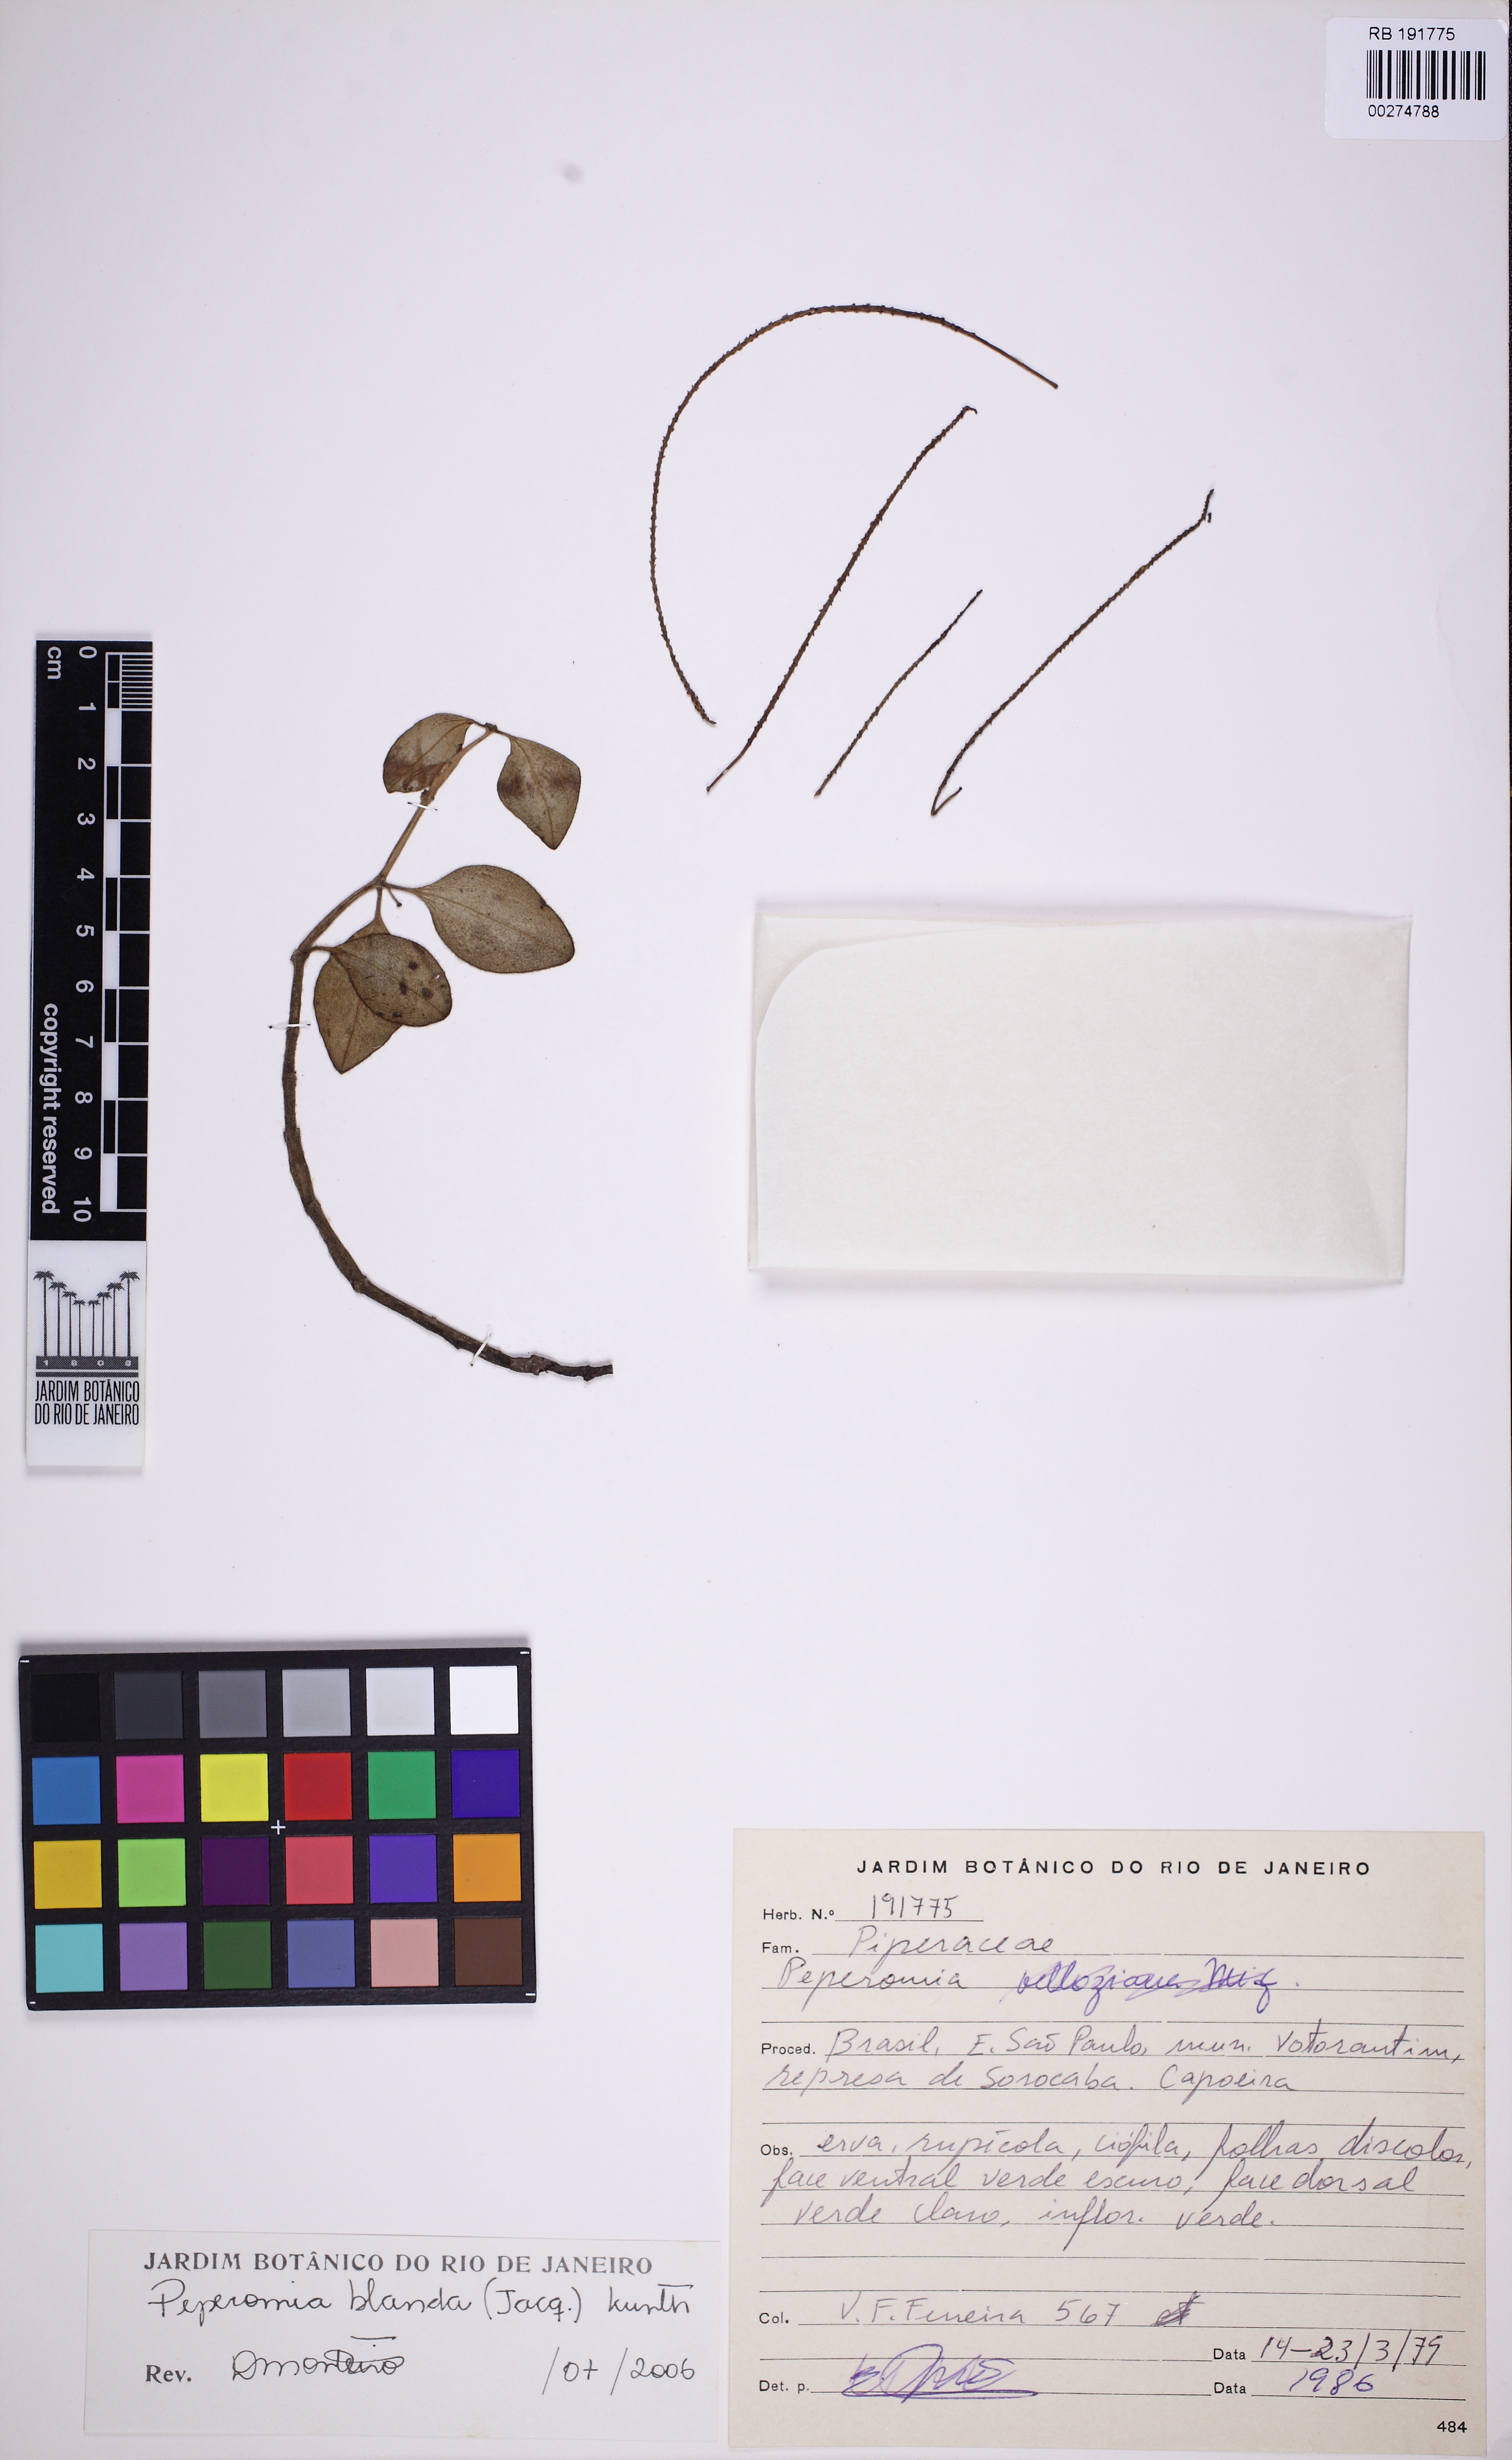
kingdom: Plantae
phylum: Tracheophyta
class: Magnoliopsida
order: Piperales
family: Piperaceae
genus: Peperomia
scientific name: Peperomia blanda
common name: Arid-land peperomia
